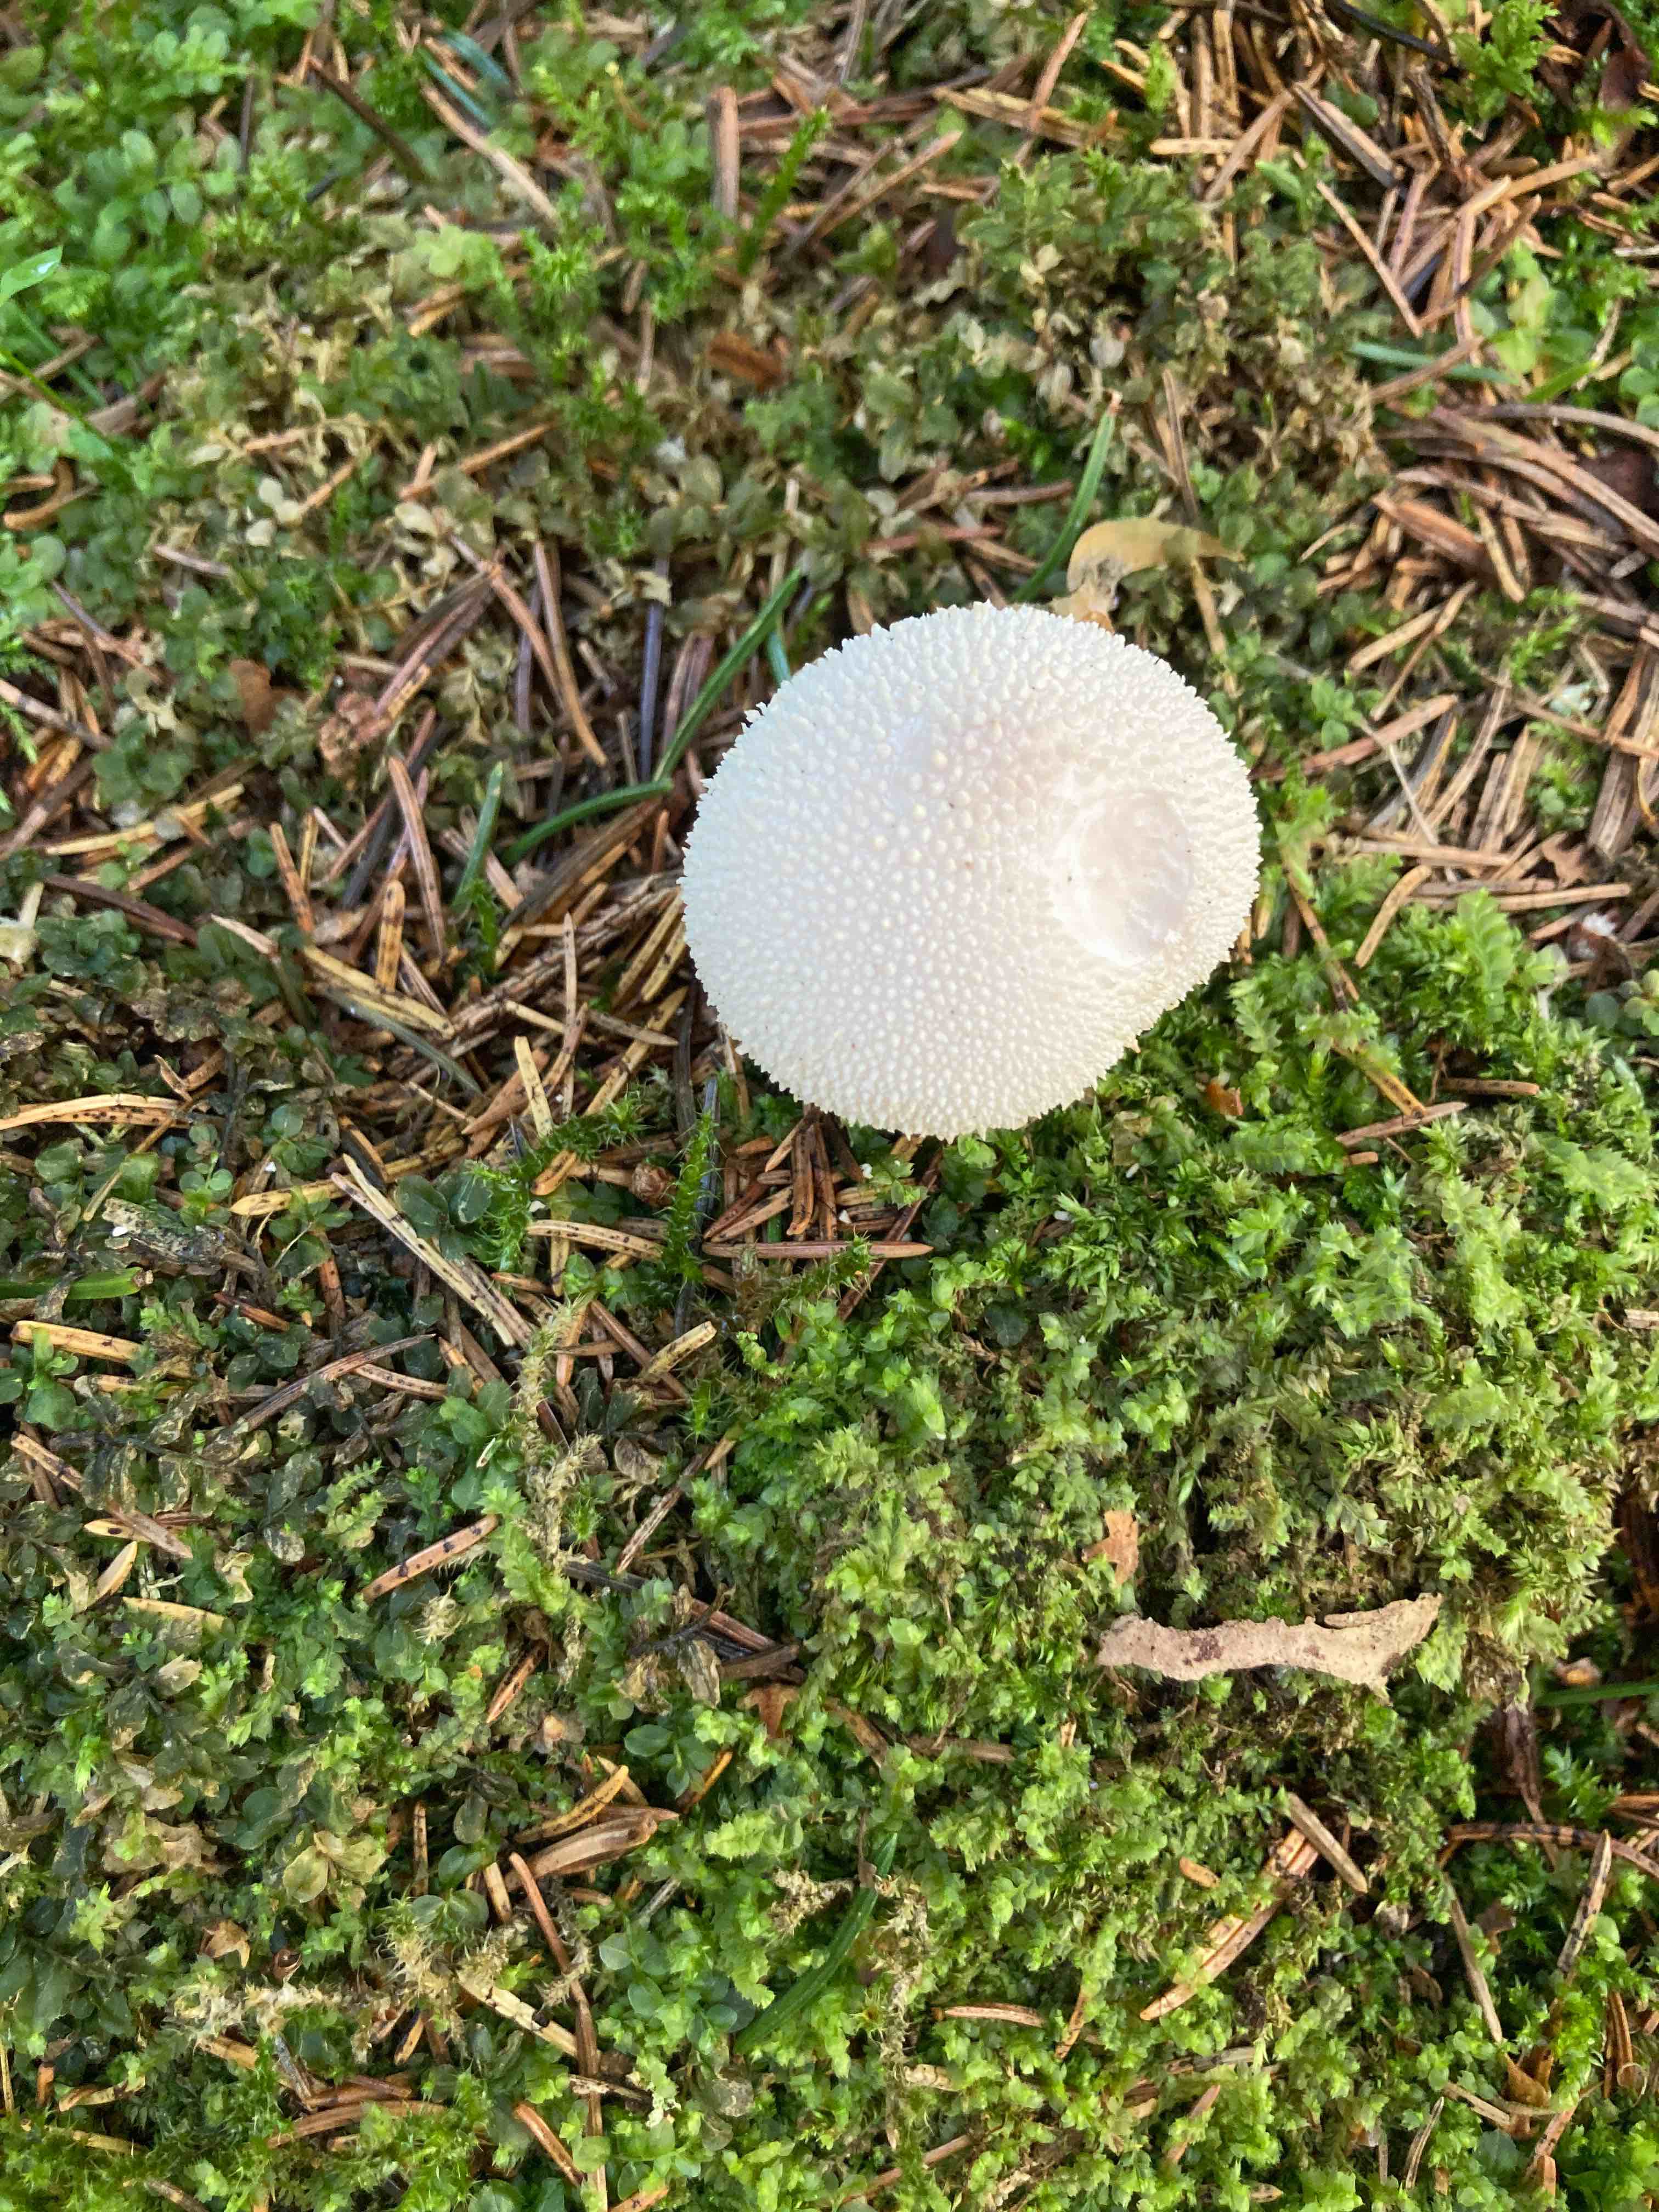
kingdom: Fungi
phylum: Basidiomycota
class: Agaricomycetes
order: Agaricales
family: Lycoperdaceae
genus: Lycoperdon
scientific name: Lycoperdon perlatum
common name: krystal-støvbold
